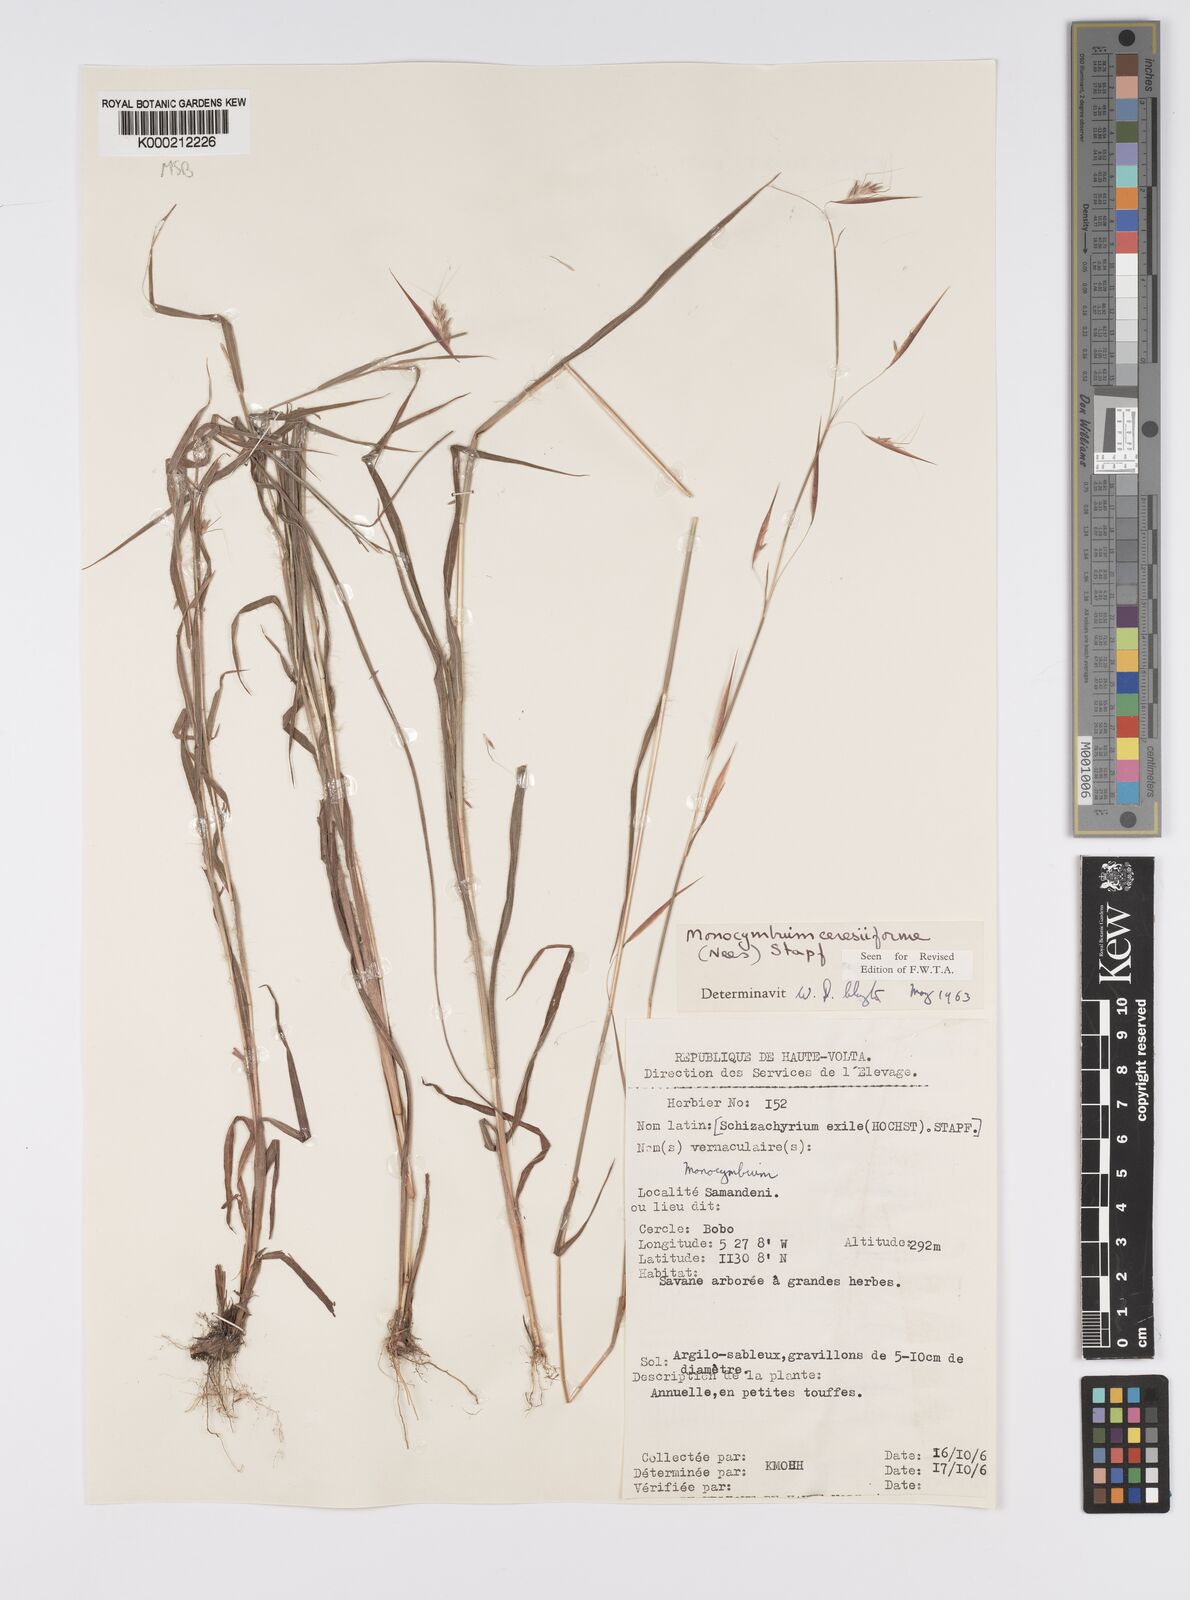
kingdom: Plantae
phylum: Tracheophyta
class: Liliopsida
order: Poales
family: Poaceae
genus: Monocymbium
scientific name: Monocymbium ceresiiforme
